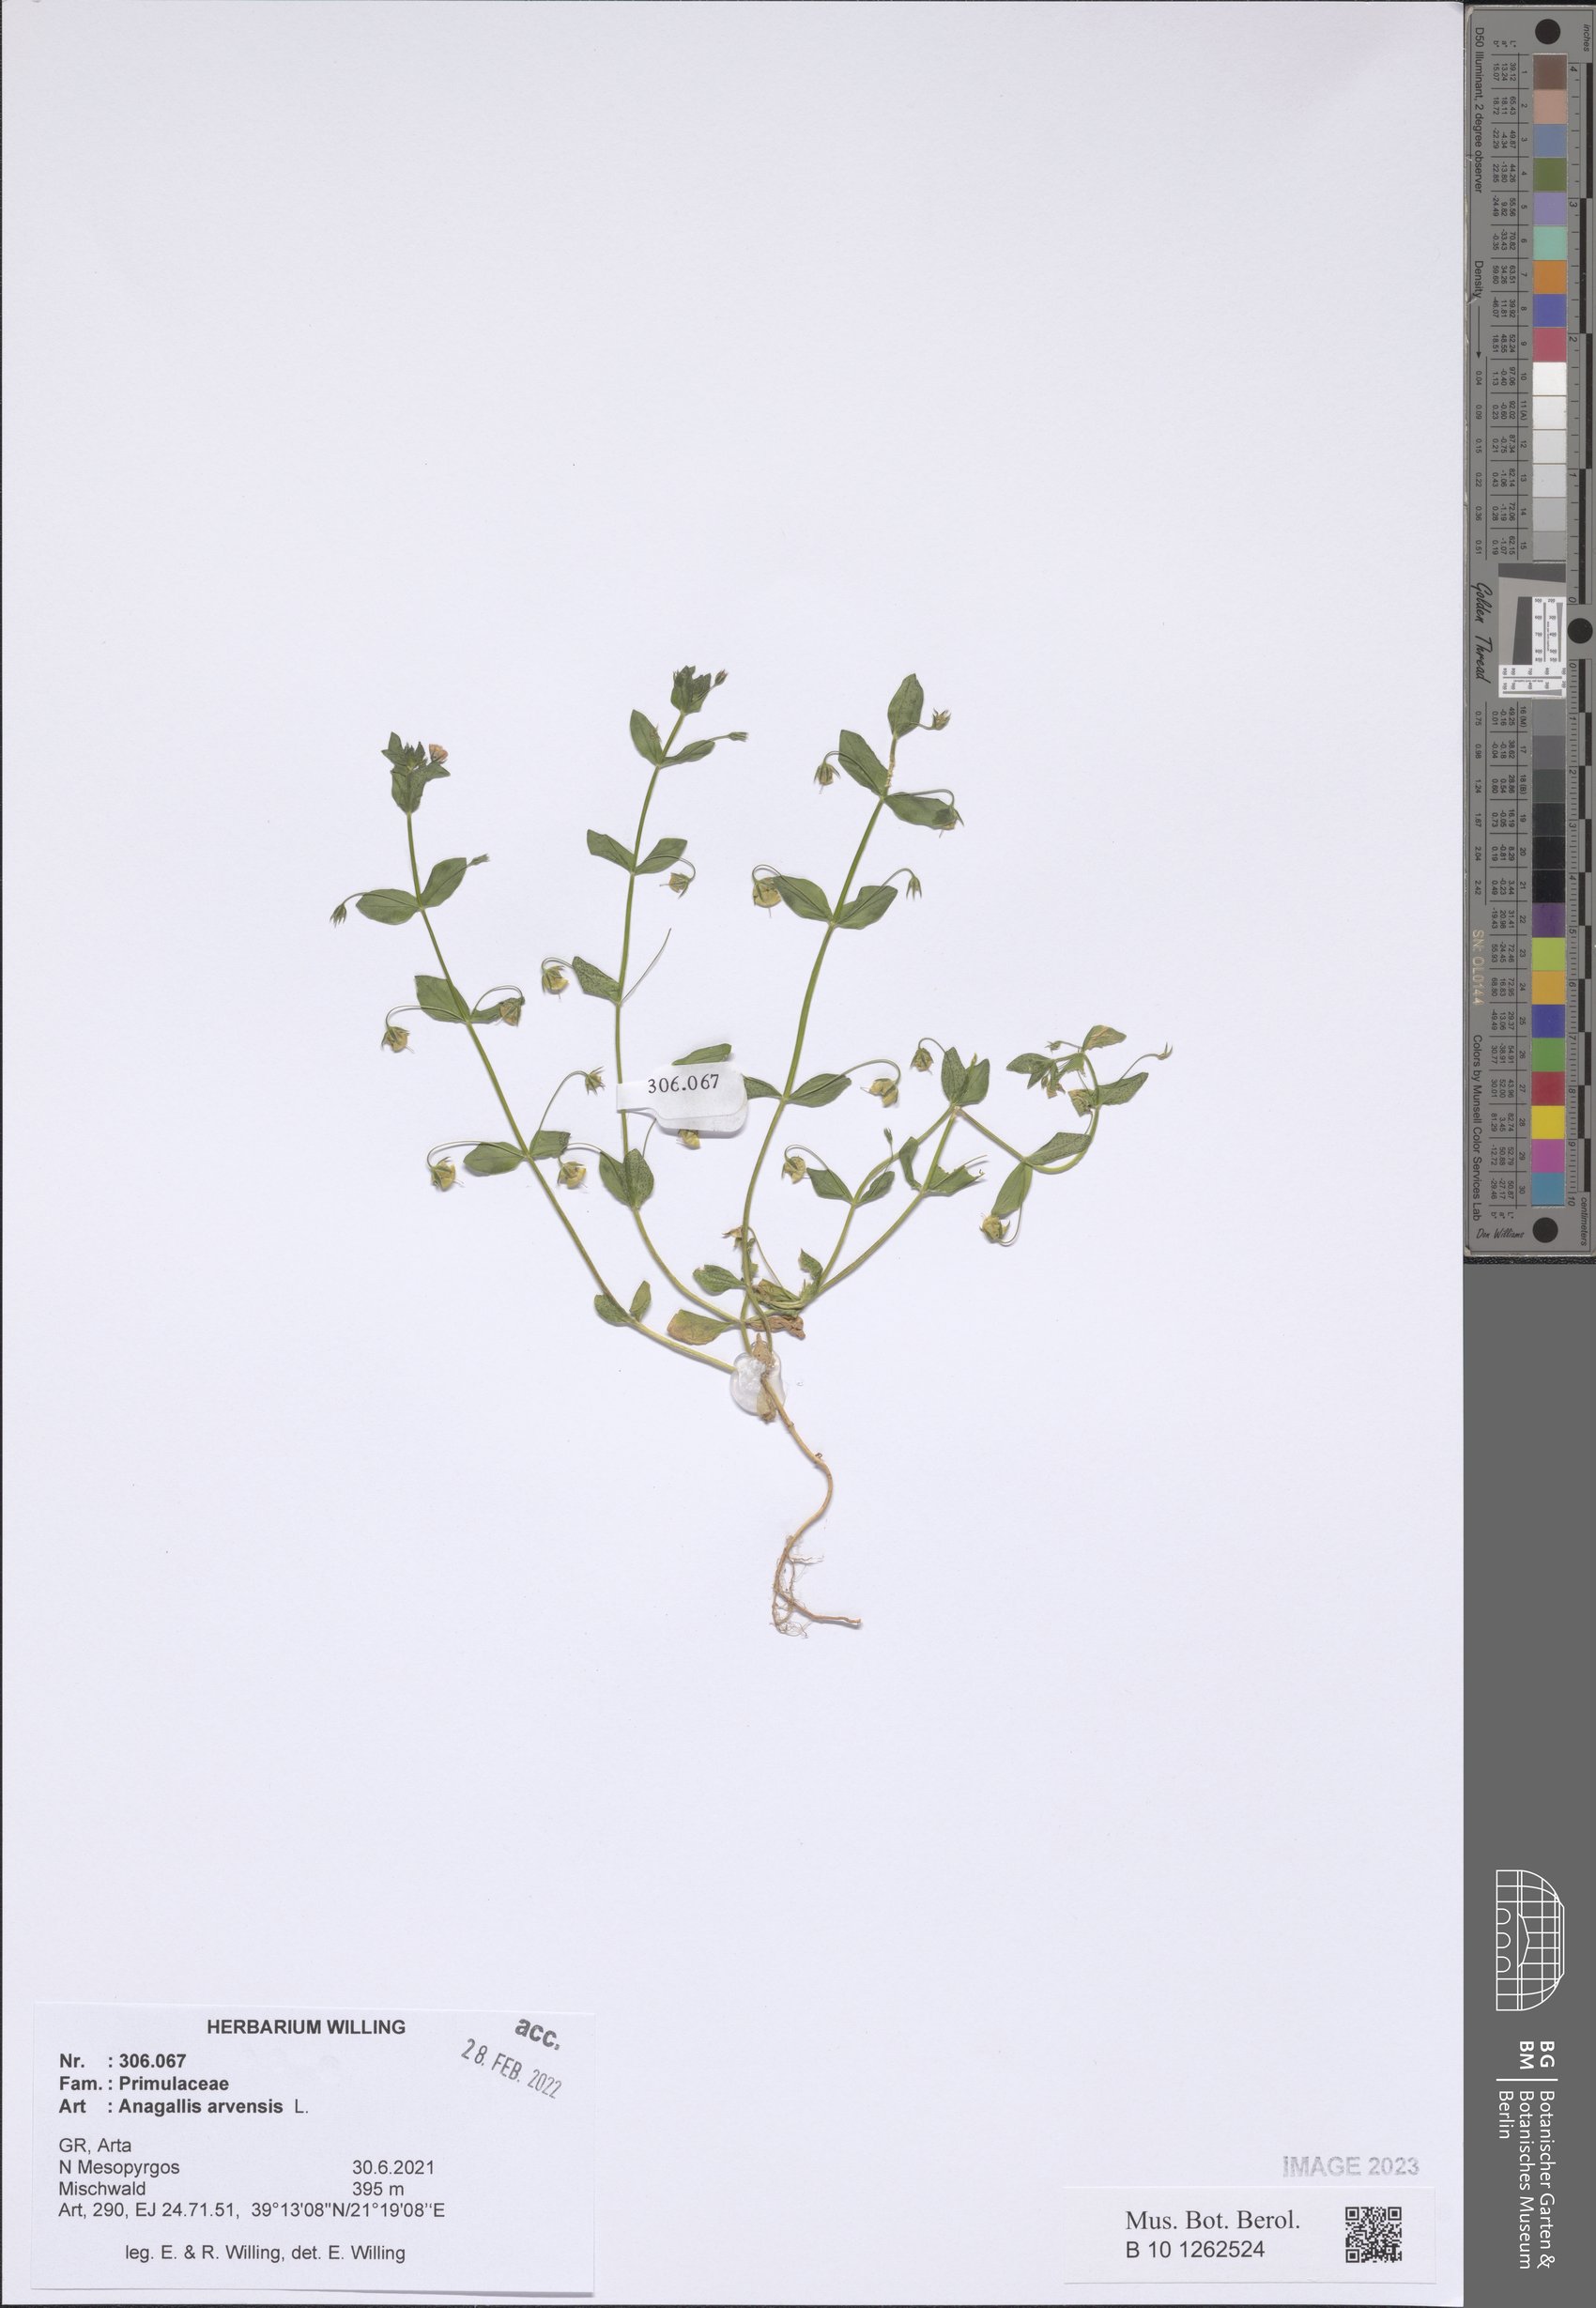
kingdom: Plantae
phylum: Tracheophyta
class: Magnoliopsida
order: Ericales
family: Primulaceae
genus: Lysimachia
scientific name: Lysimachia arvensis
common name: Scarlet pimpernel
